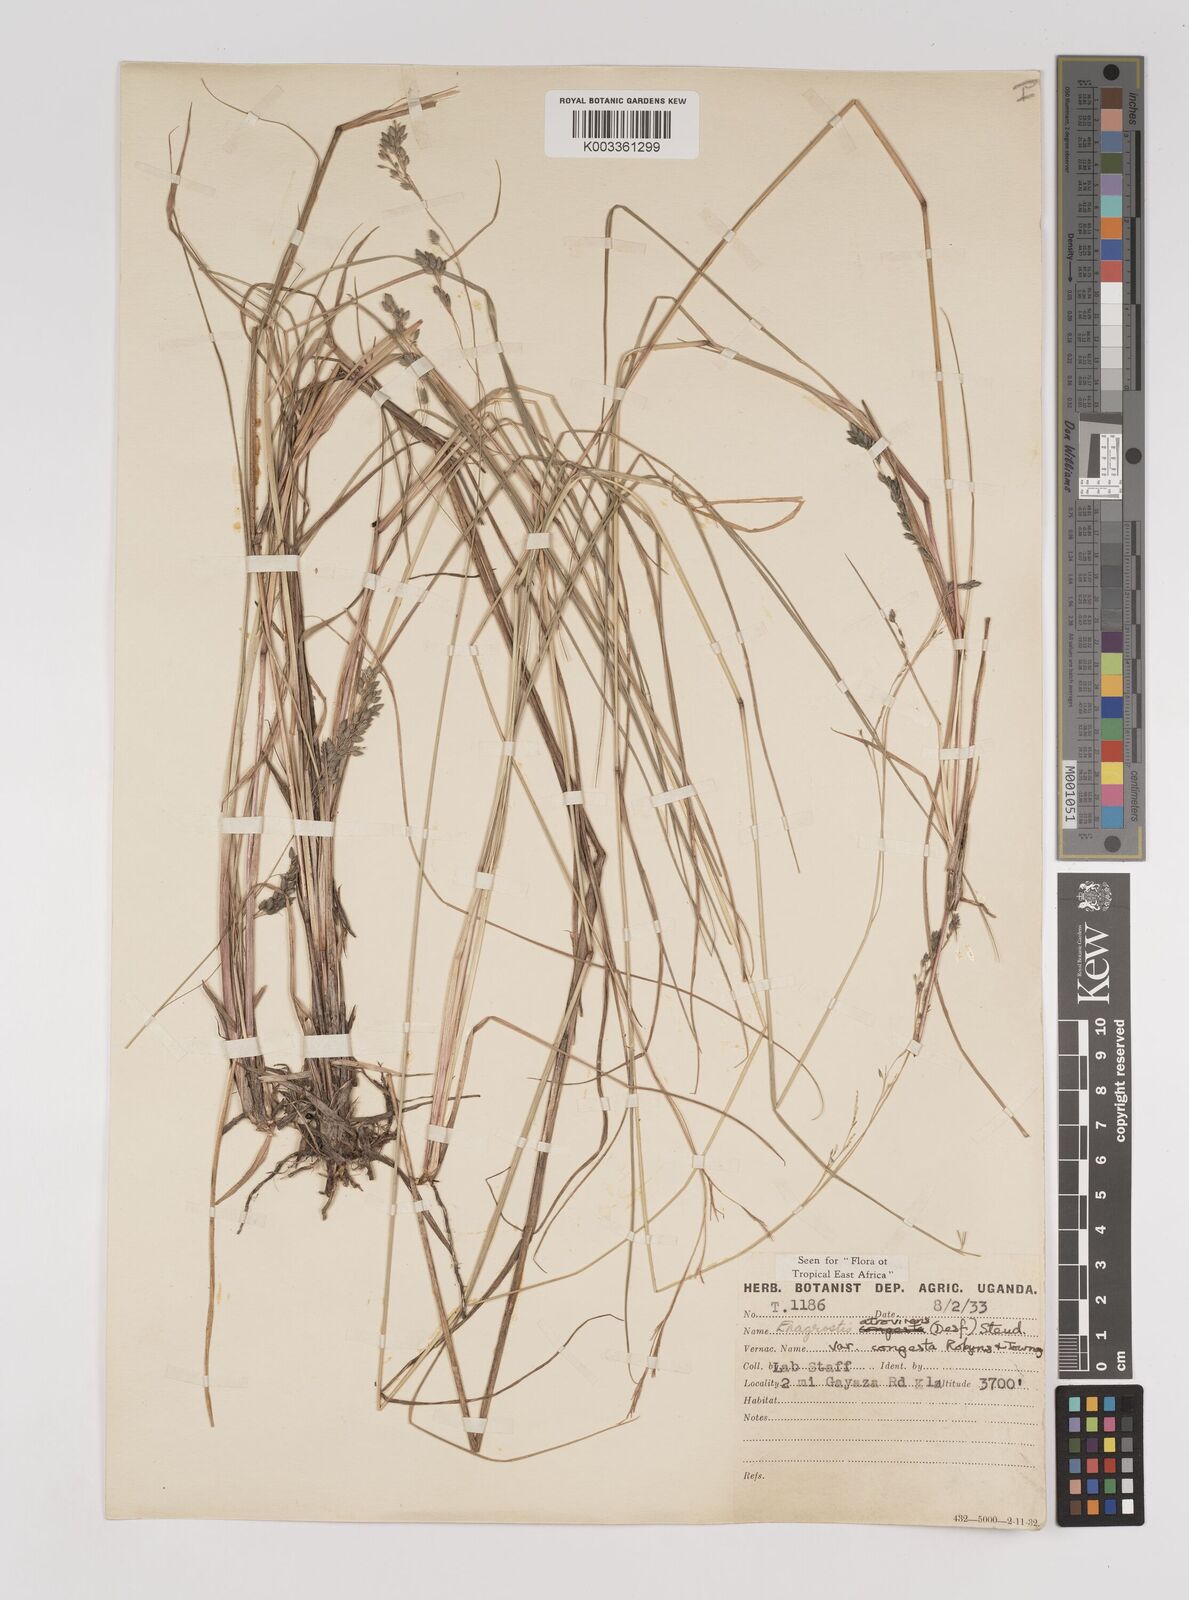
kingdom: Plantae
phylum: Tracheophyta
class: Liliopsida
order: Poales
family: Poaceae
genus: Eragrostis
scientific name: Eragrostis botryodes
